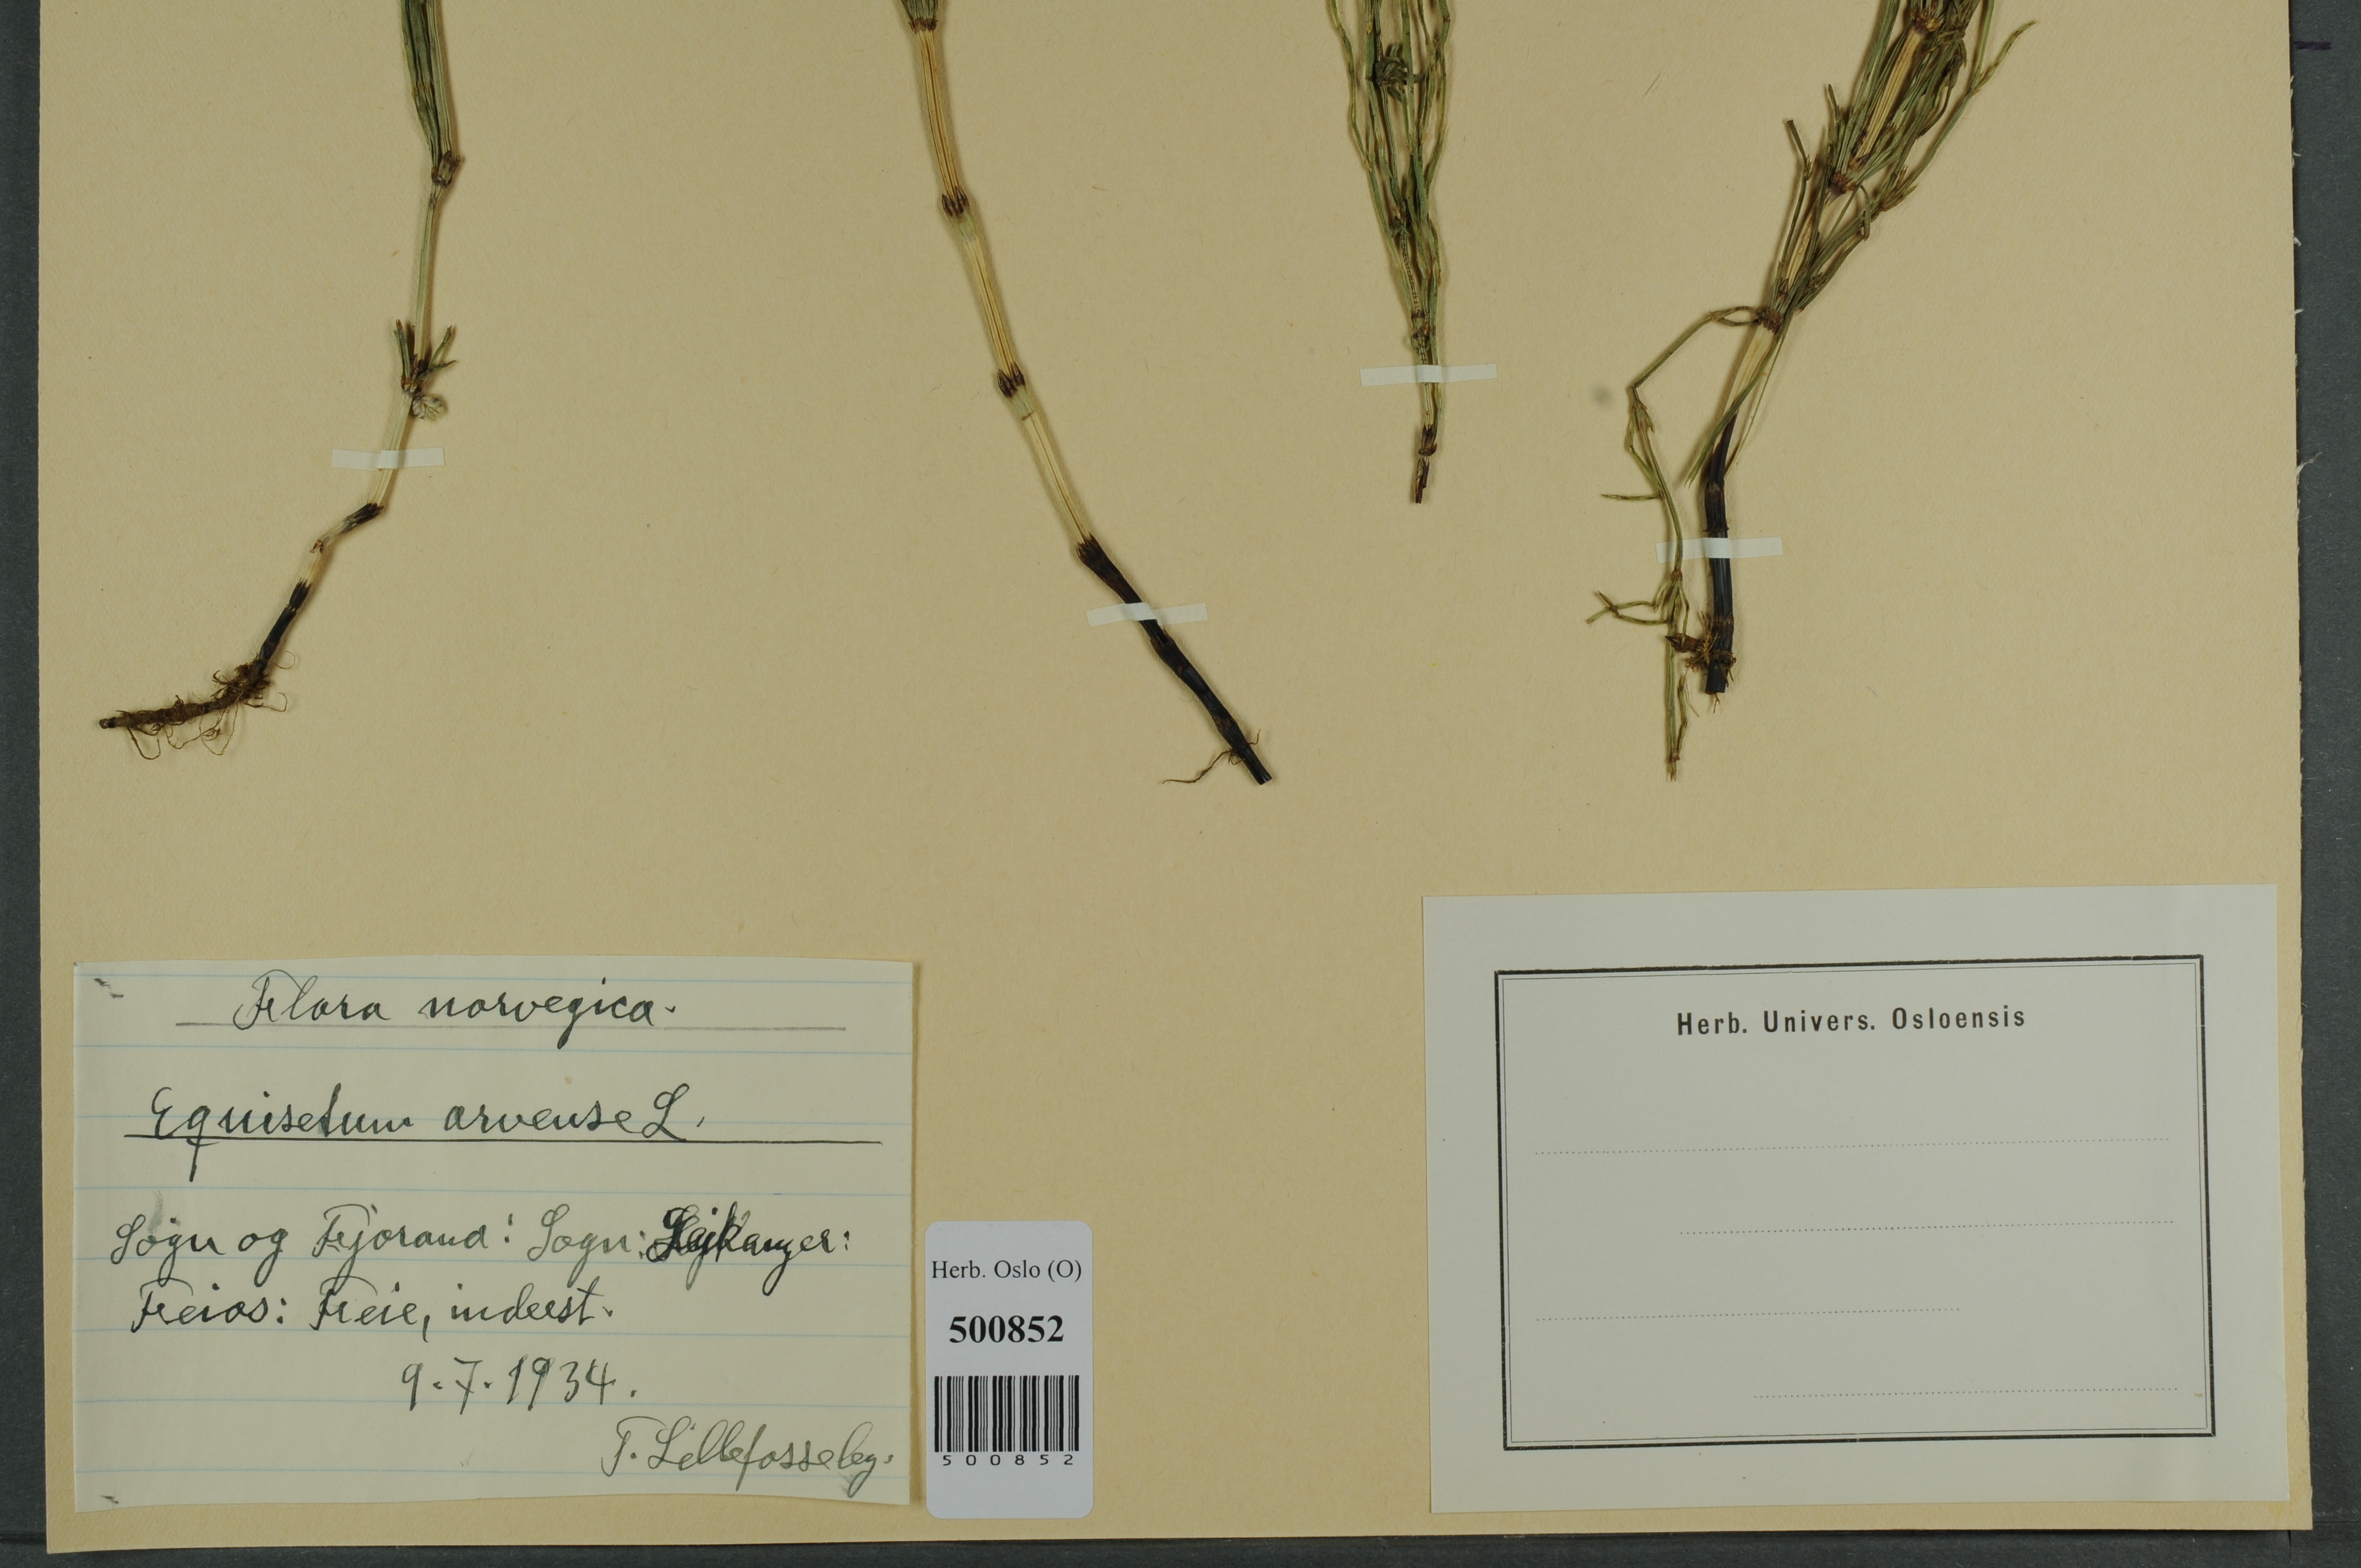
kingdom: Plantae
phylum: Tracheophyta
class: Polypodiopsida
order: Equisetales
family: Equisetaceae
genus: Equisetum
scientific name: Equisetum arvense
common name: Field horsetail
